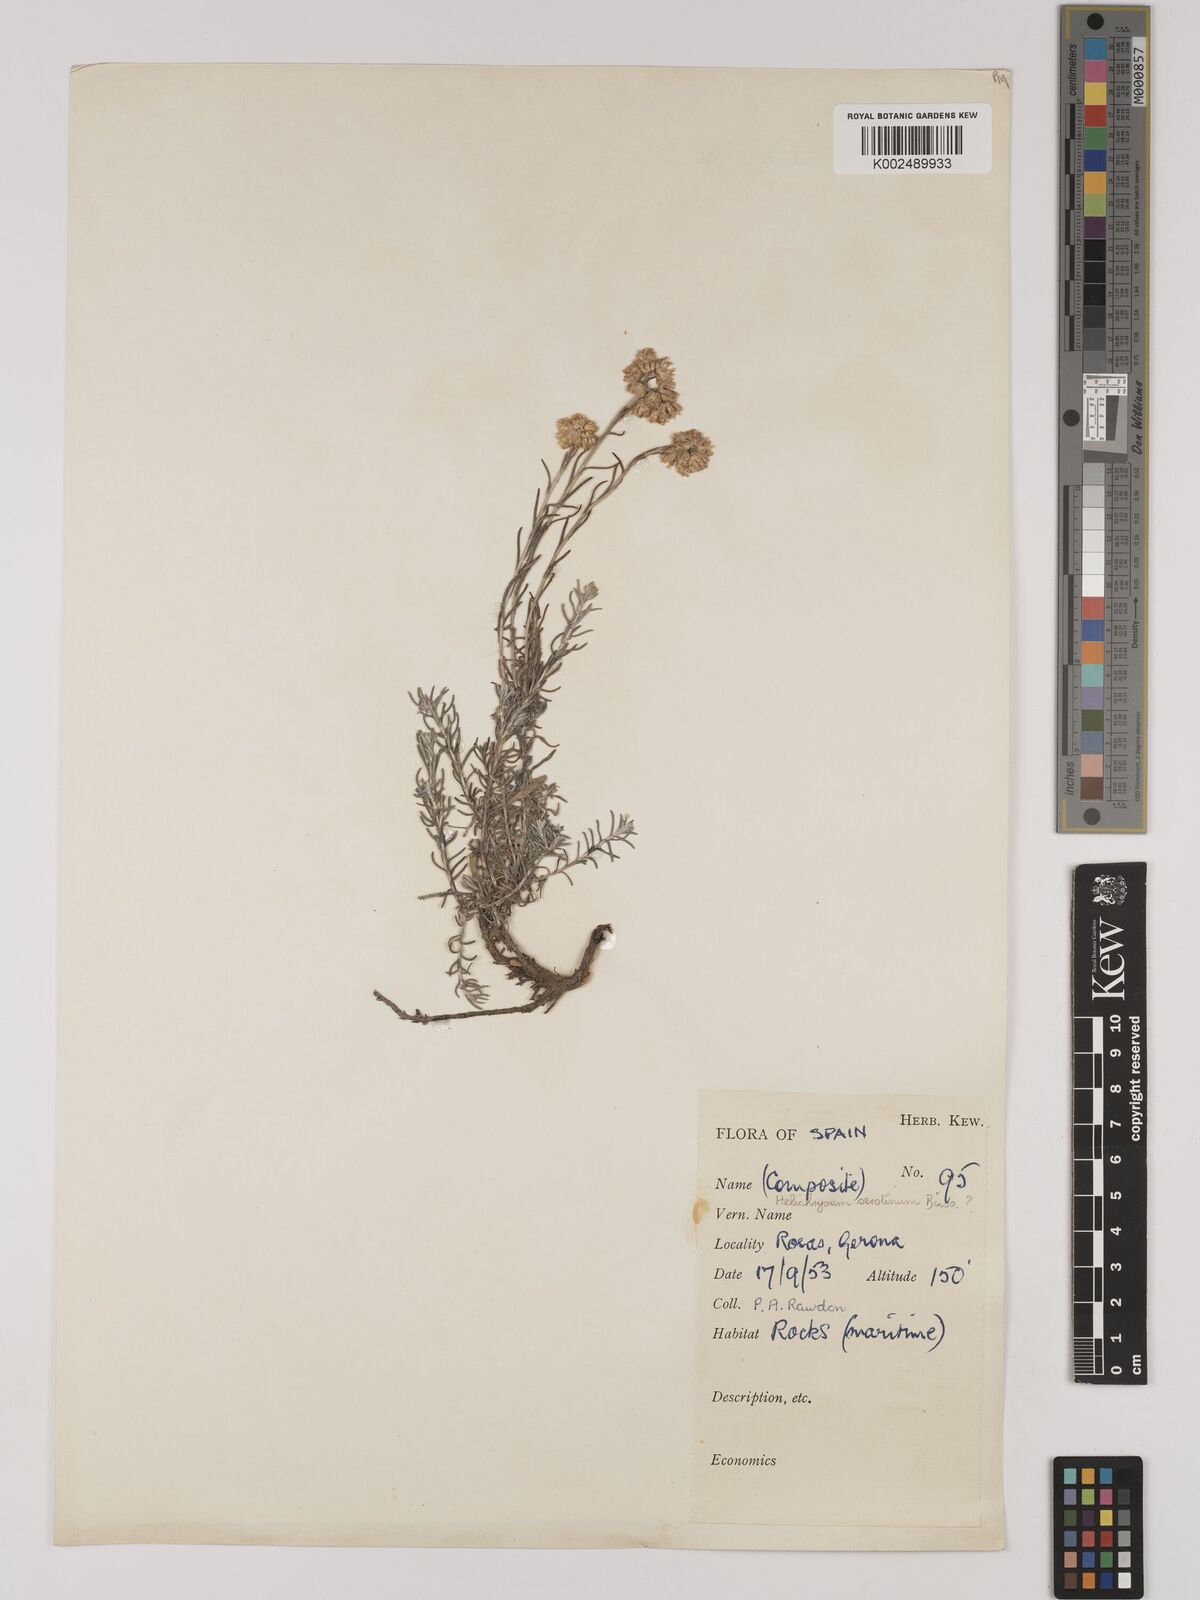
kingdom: Plantae
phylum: Tracheophyta
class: Magnoliopsida
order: Asterales
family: Asteraceae
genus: Helichrysum
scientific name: Helichrysum
